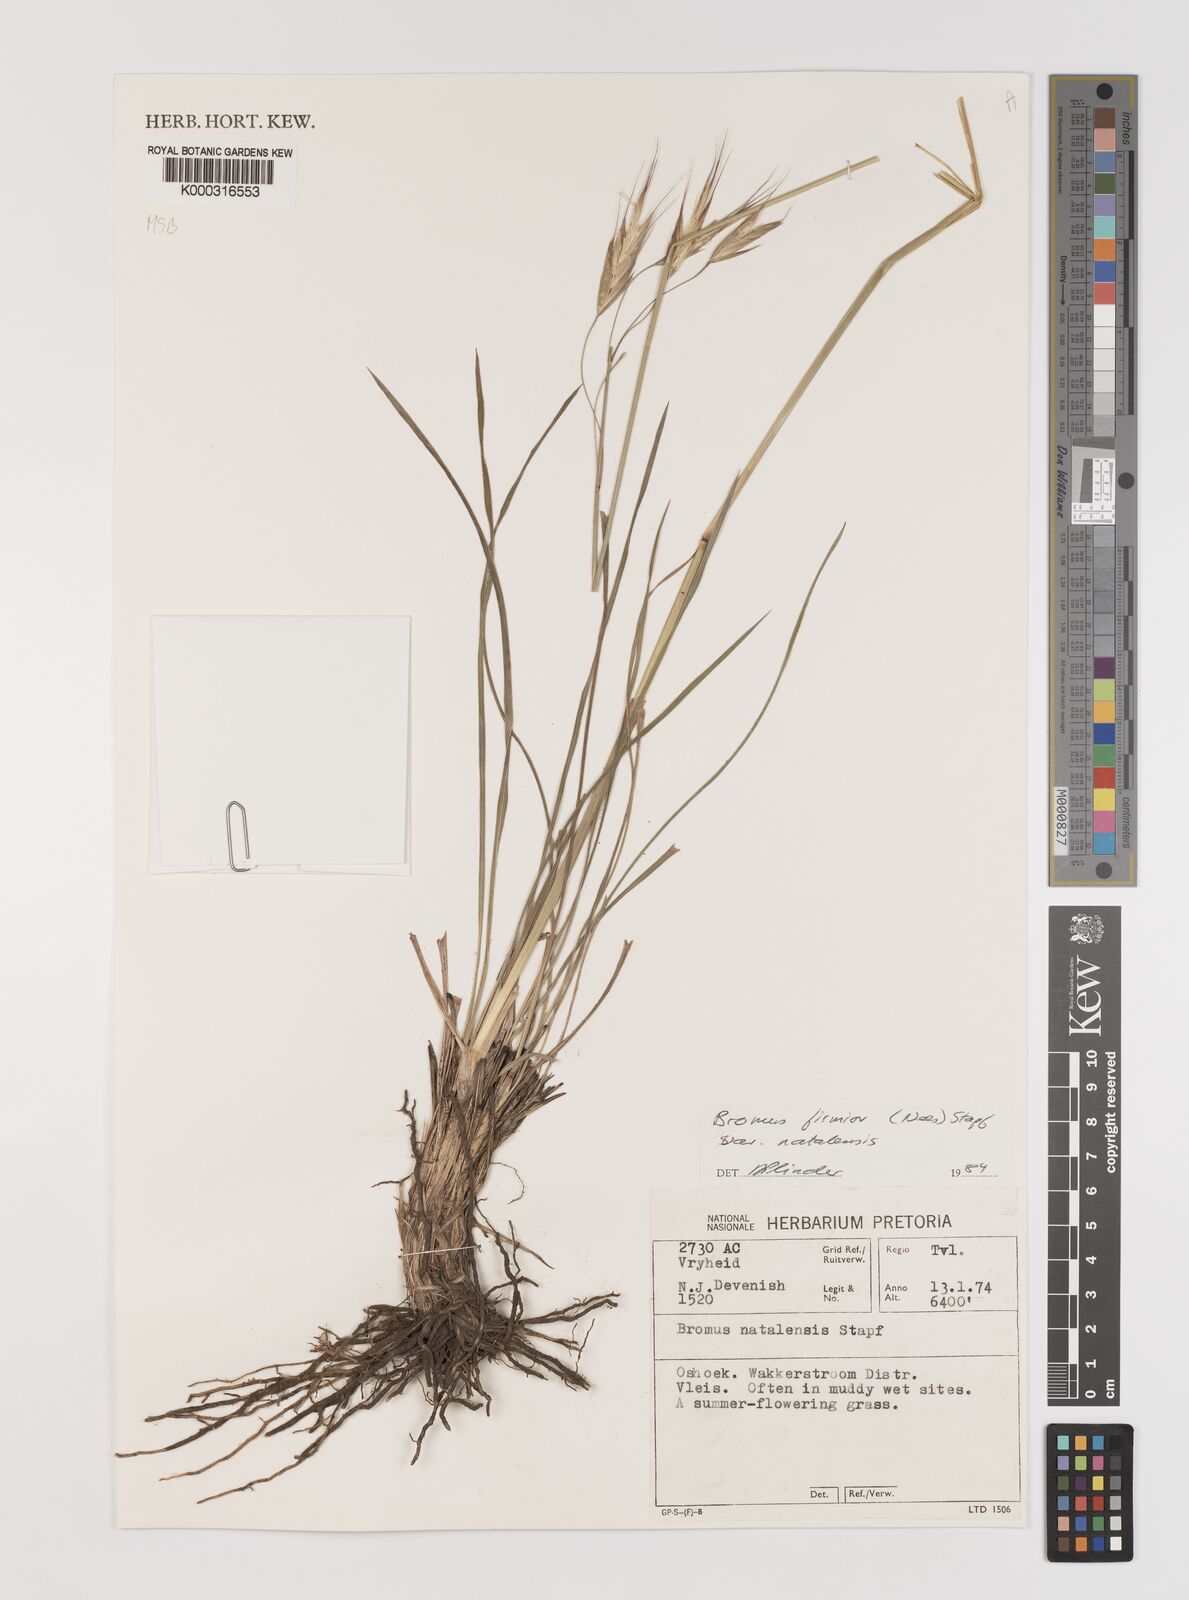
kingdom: Plantae
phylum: Tracheophyta
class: Liliopsida
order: Poales
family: Poaceae
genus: Bromus
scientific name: Bromus natalensis
